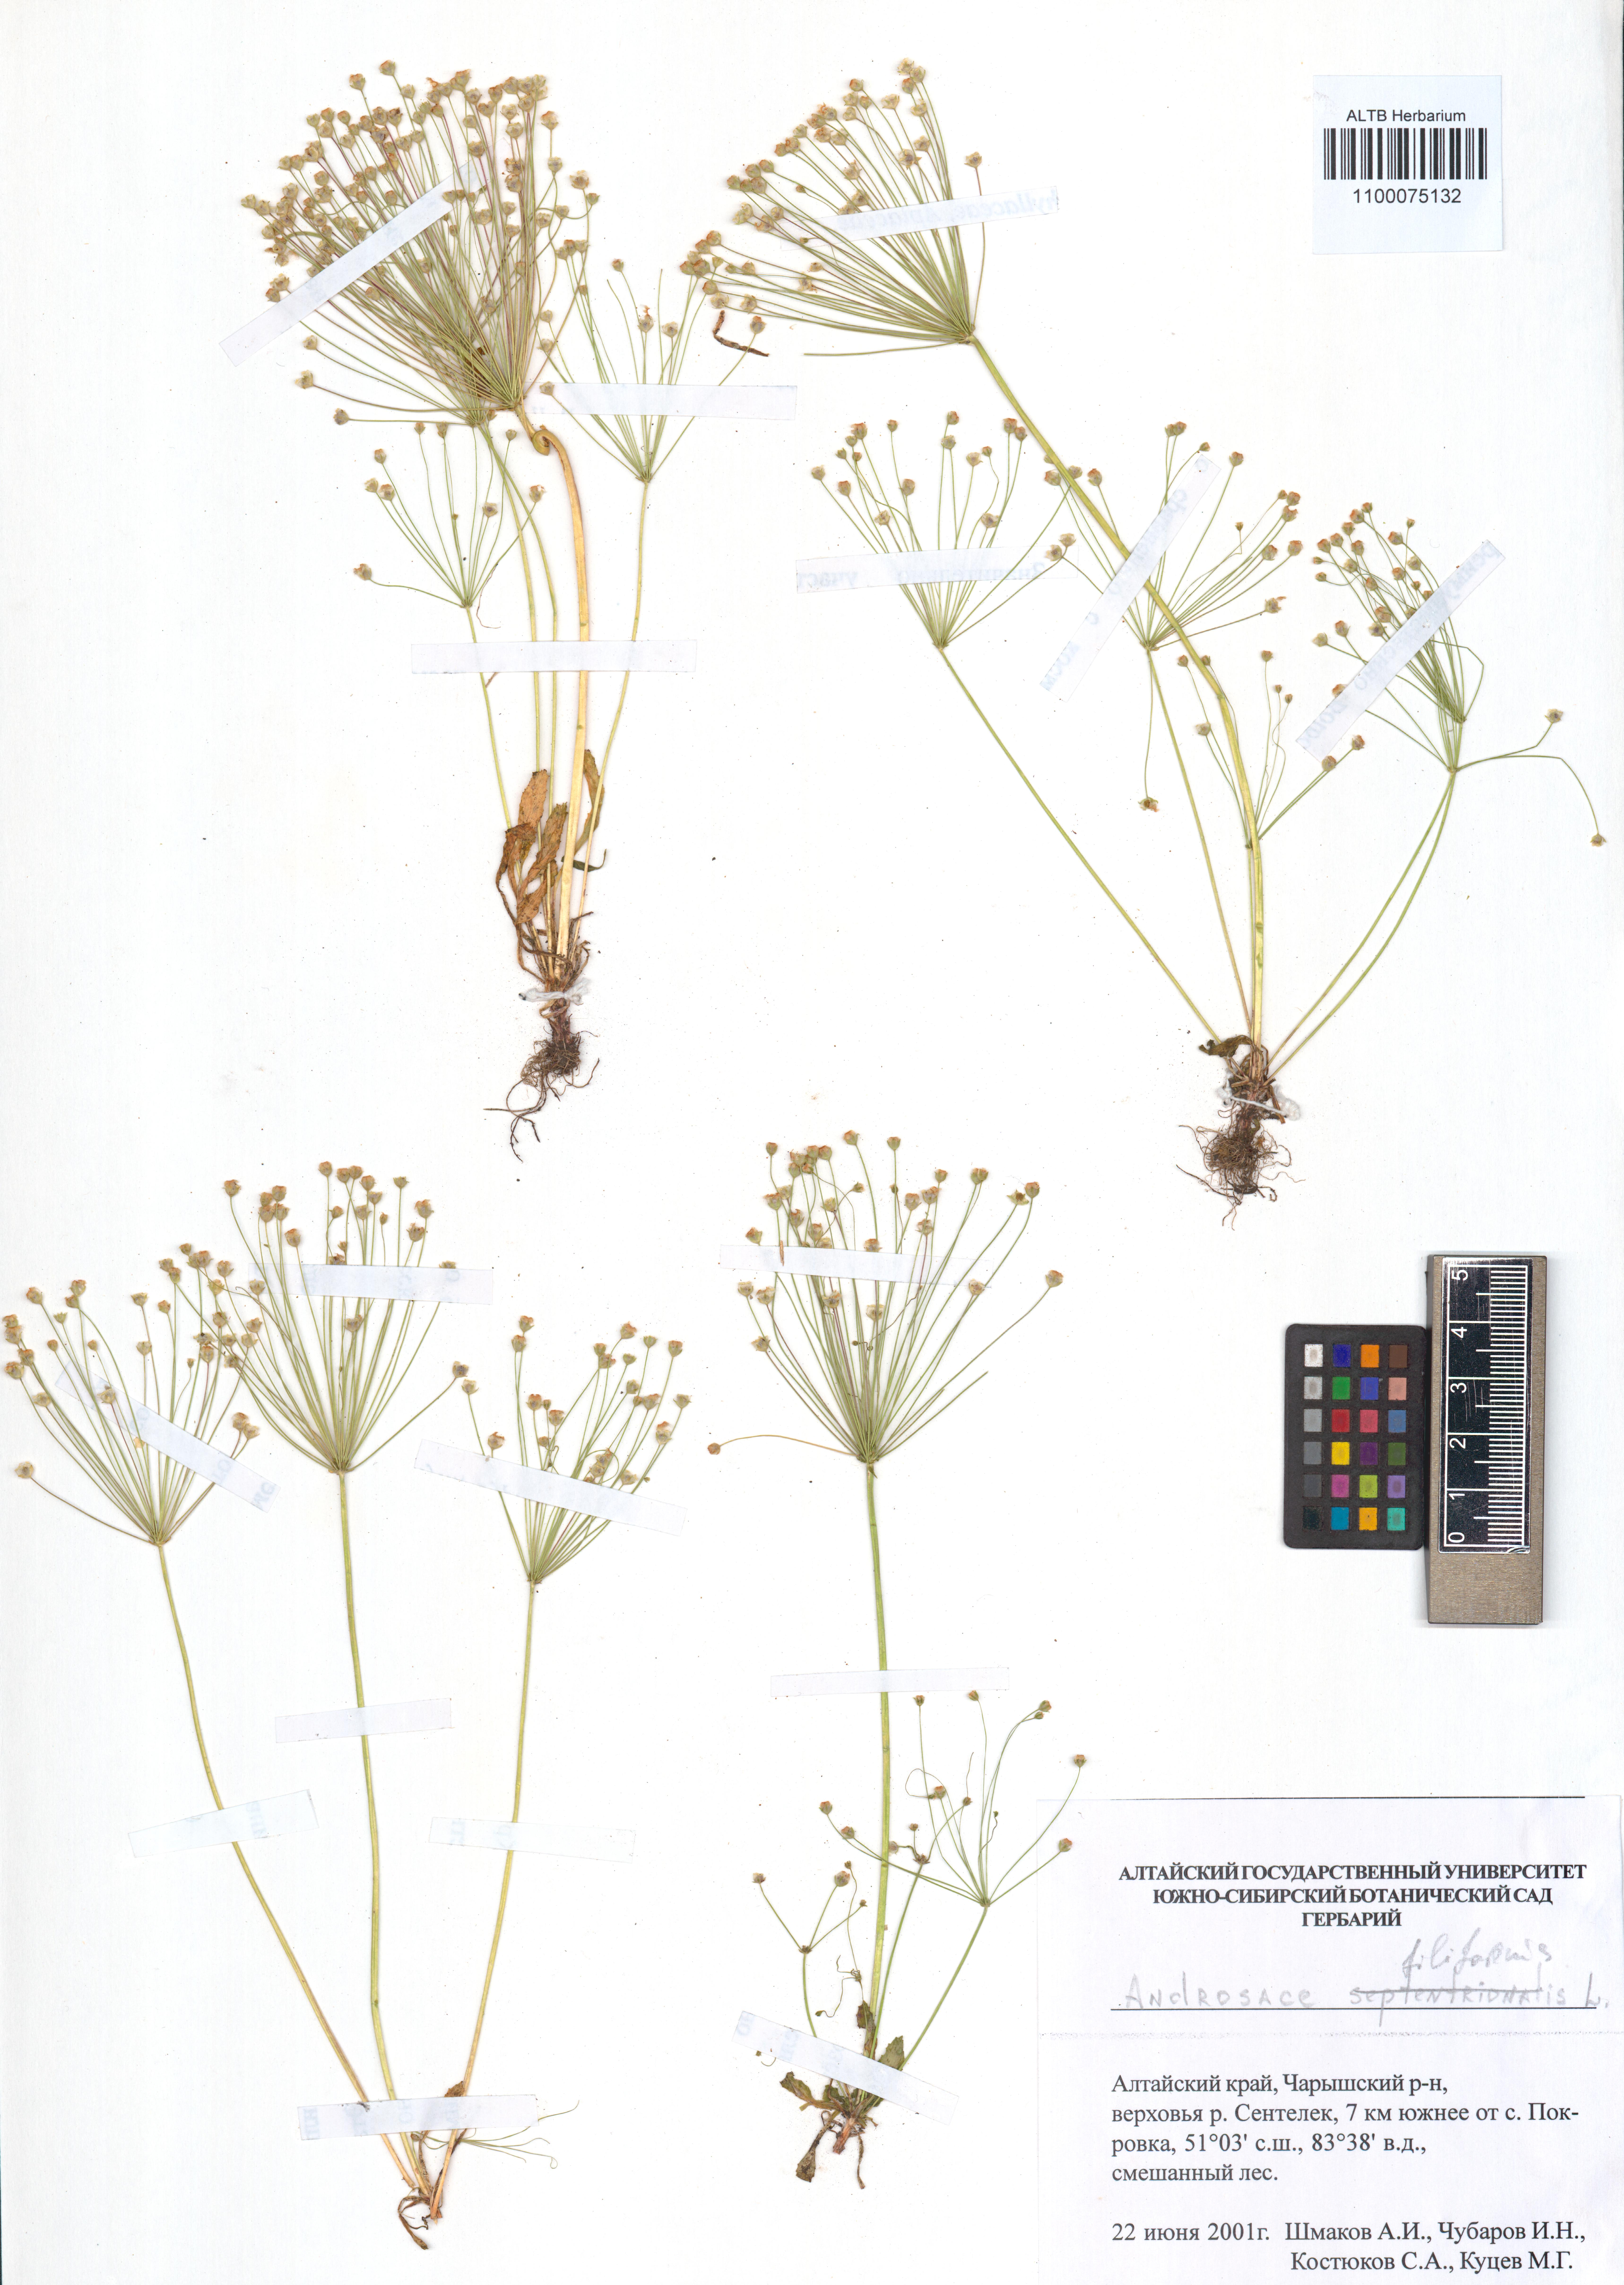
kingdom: Plantae
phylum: Tracheophyta
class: Magnoliopsida
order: Ericales
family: Primulaceae
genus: Androsace
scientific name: Androsace filiformis
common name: Filiform rock jasmine
